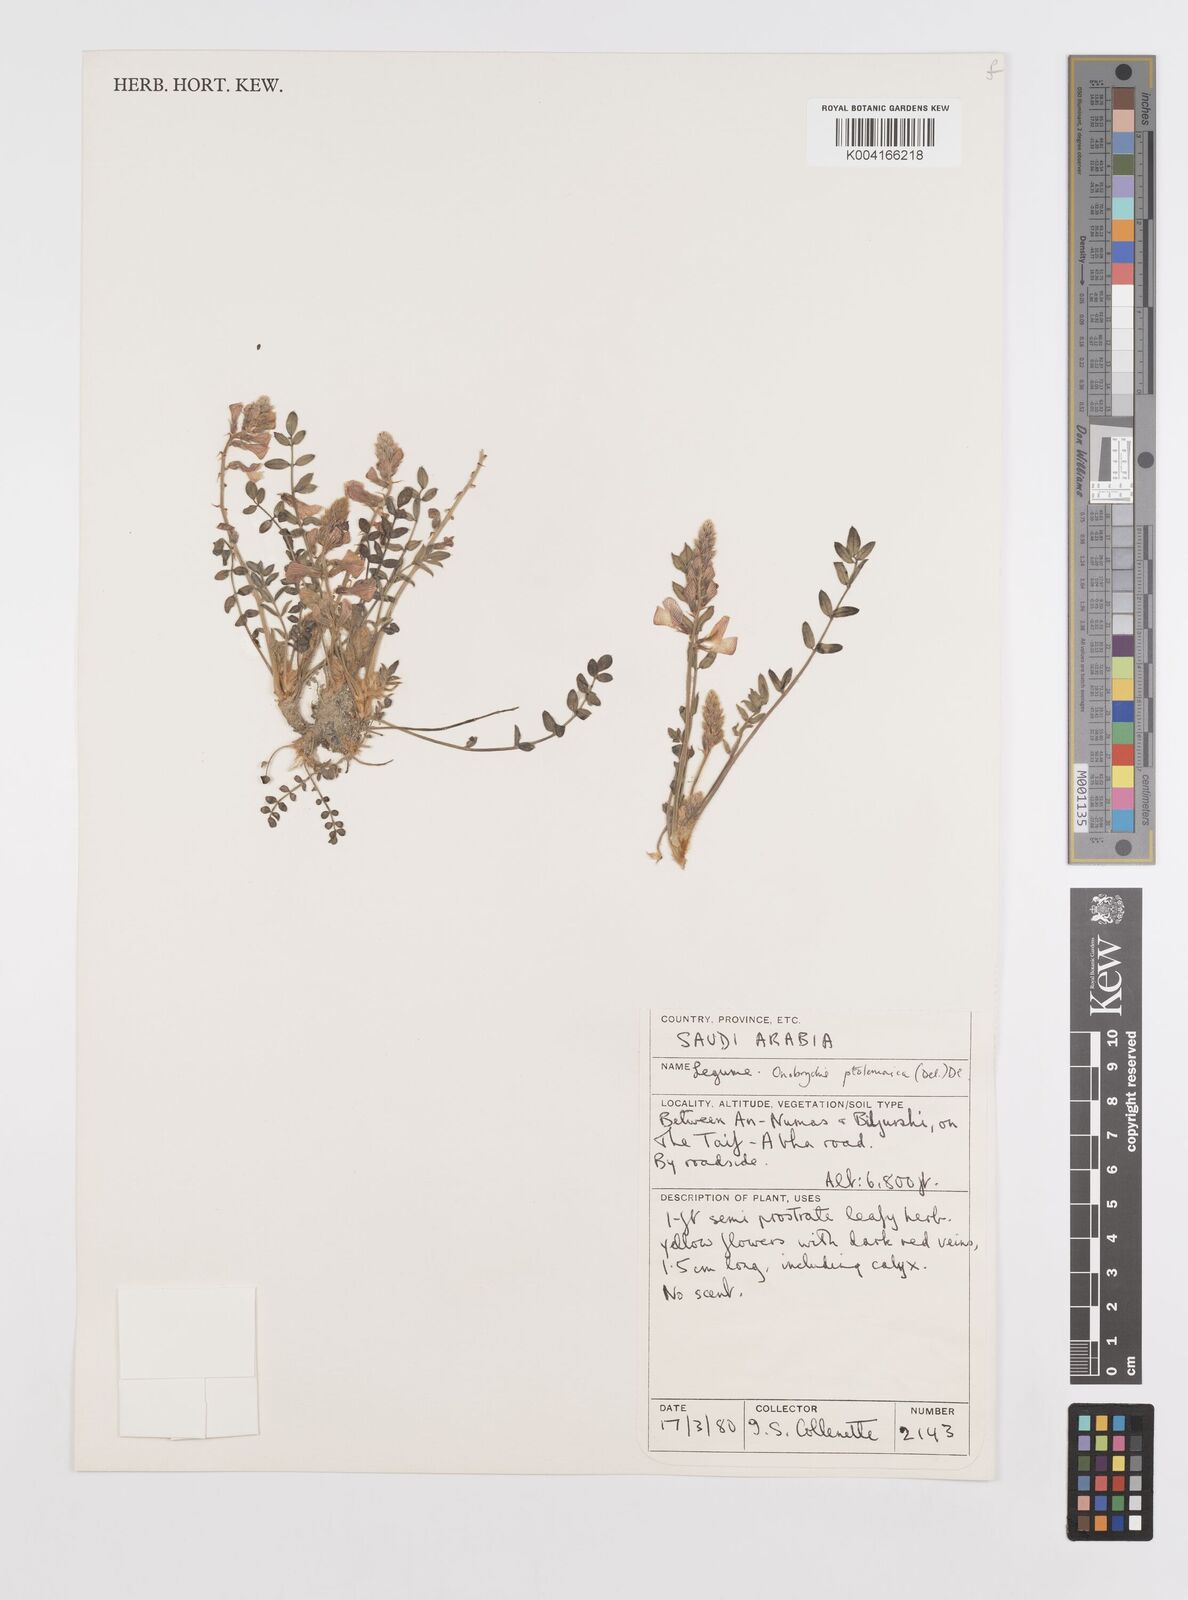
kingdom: Plantae
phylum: Tracheophyta
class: Magnoliopsida
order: Fabales
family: Fabaceae
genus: Onobrychis
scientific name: Onobrychis ptolemaica
